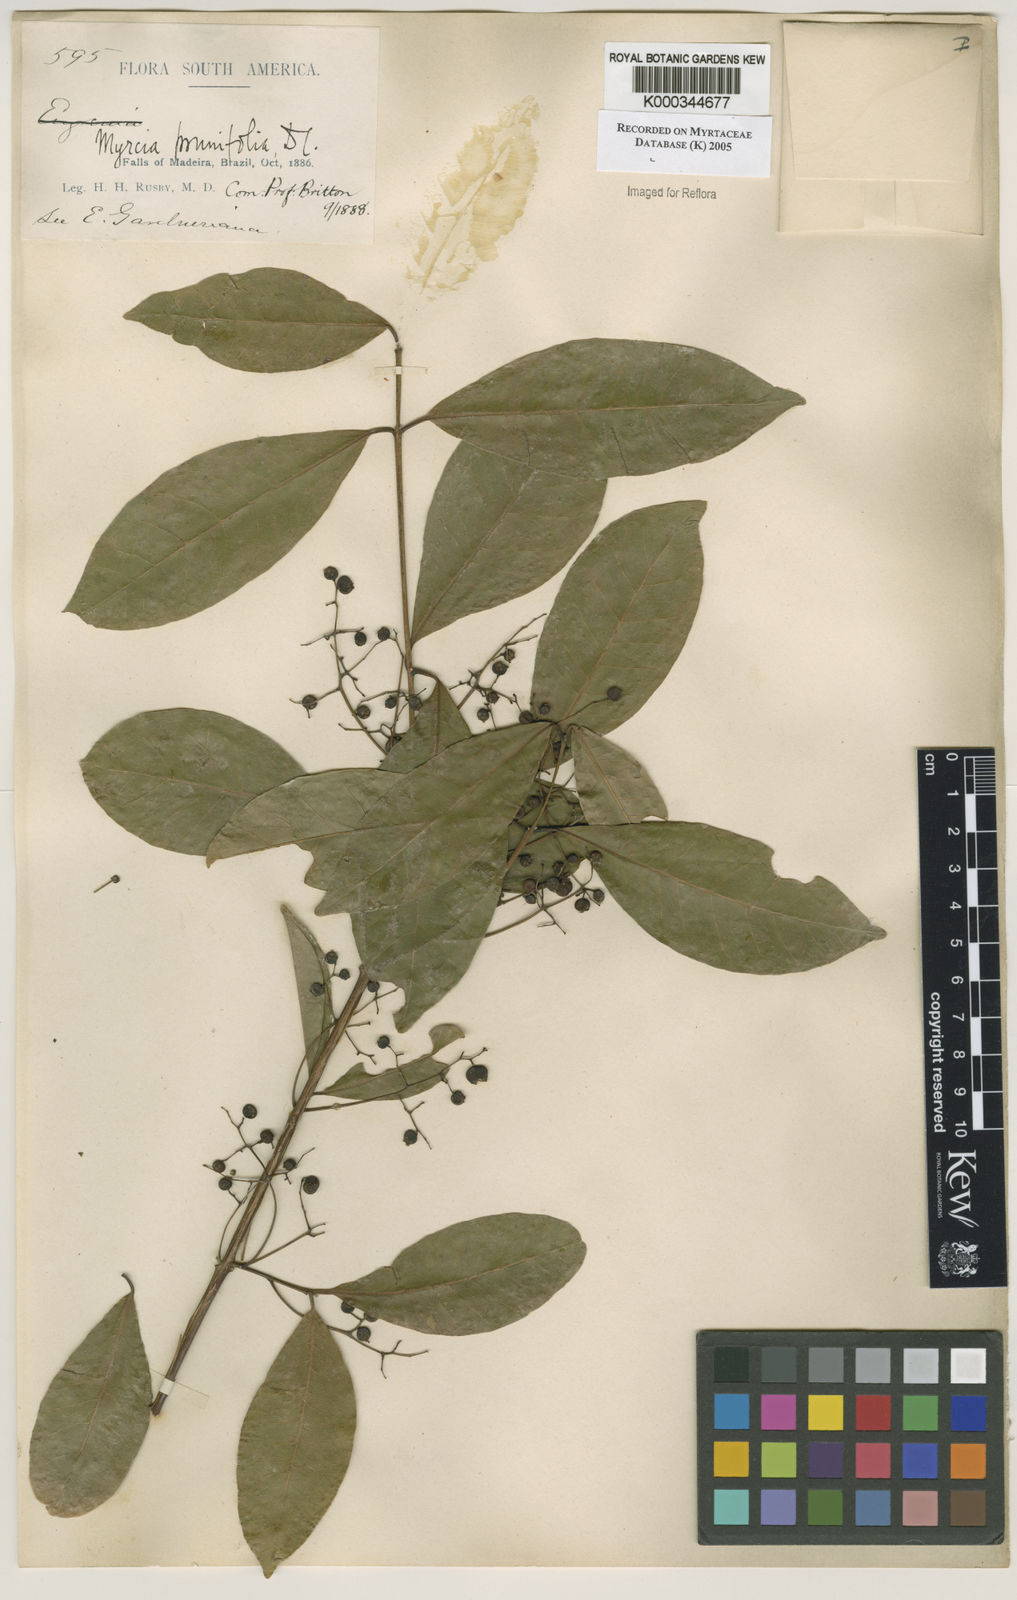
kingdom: Plantae
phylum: Tracheophyta
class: Magnoliopsida
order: Myrtales
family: Myrtaceae
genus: Myrcia
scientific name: Myrcia tomentosa
